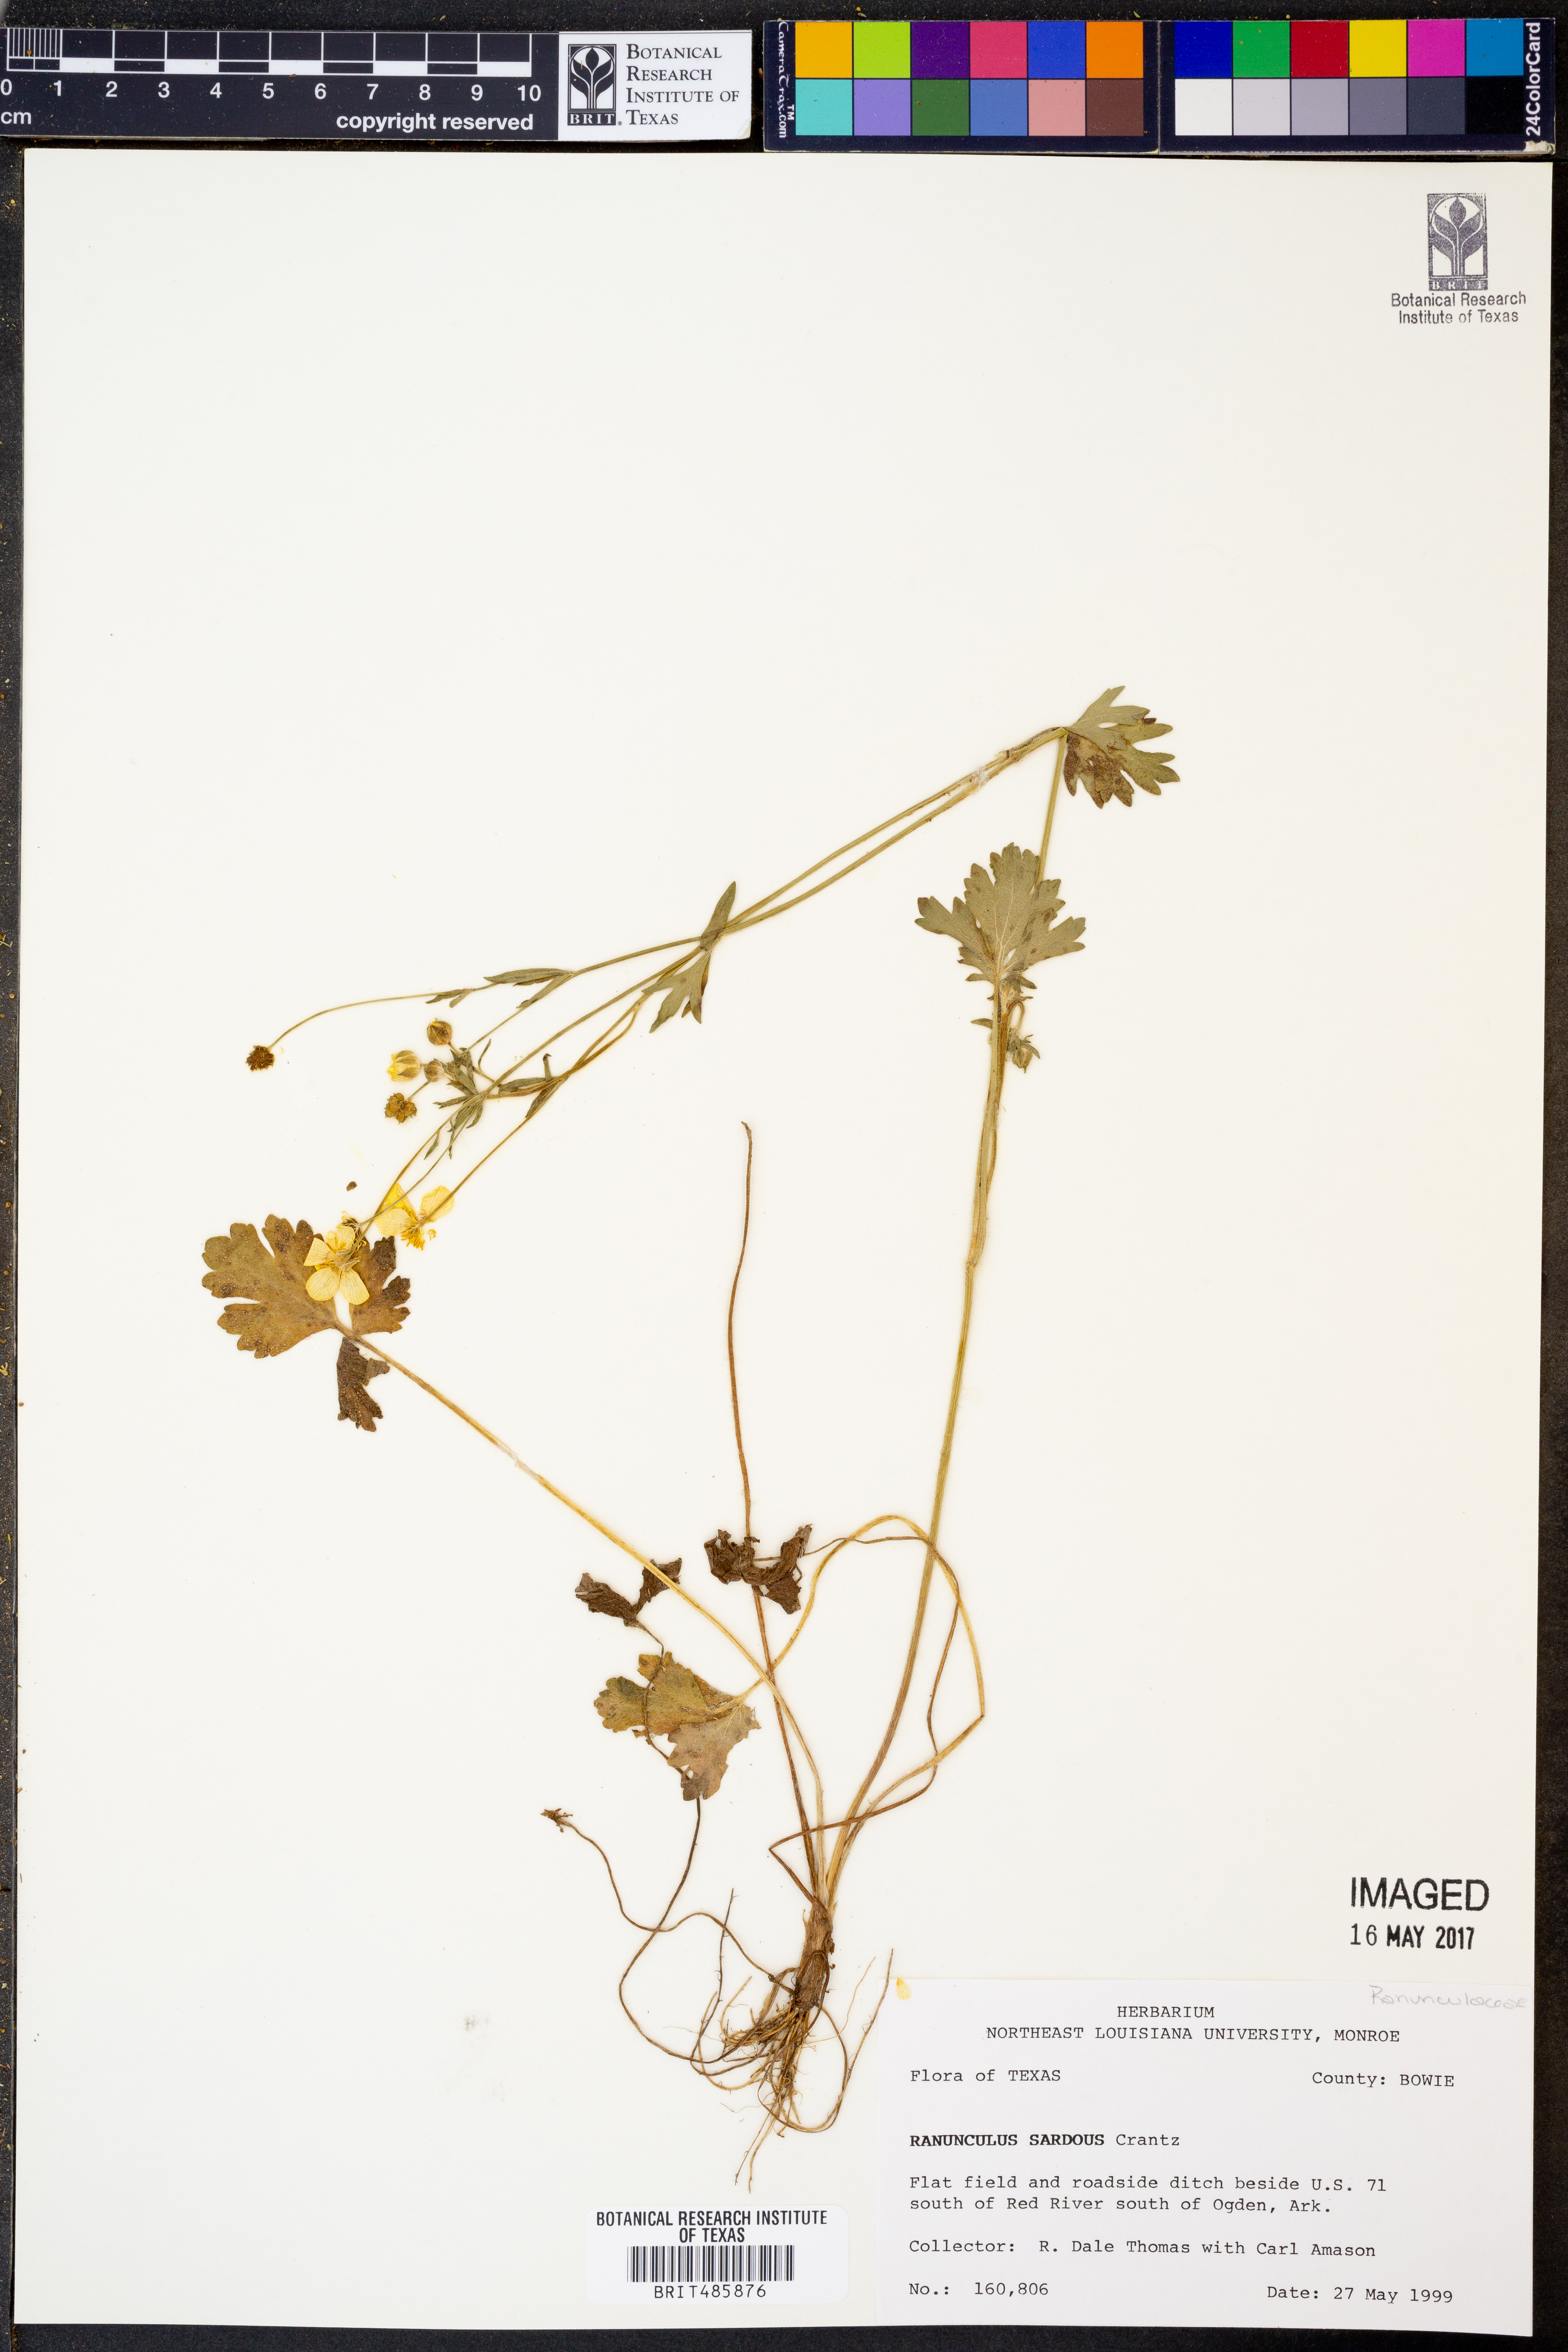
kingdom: Plantae
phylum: Tracheophyta
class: Magnoliopsida
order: Ranunculales
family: Ranunculaceae
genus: Ranunculus
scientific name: Ranunculus sardous
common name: Hairy buttercup
